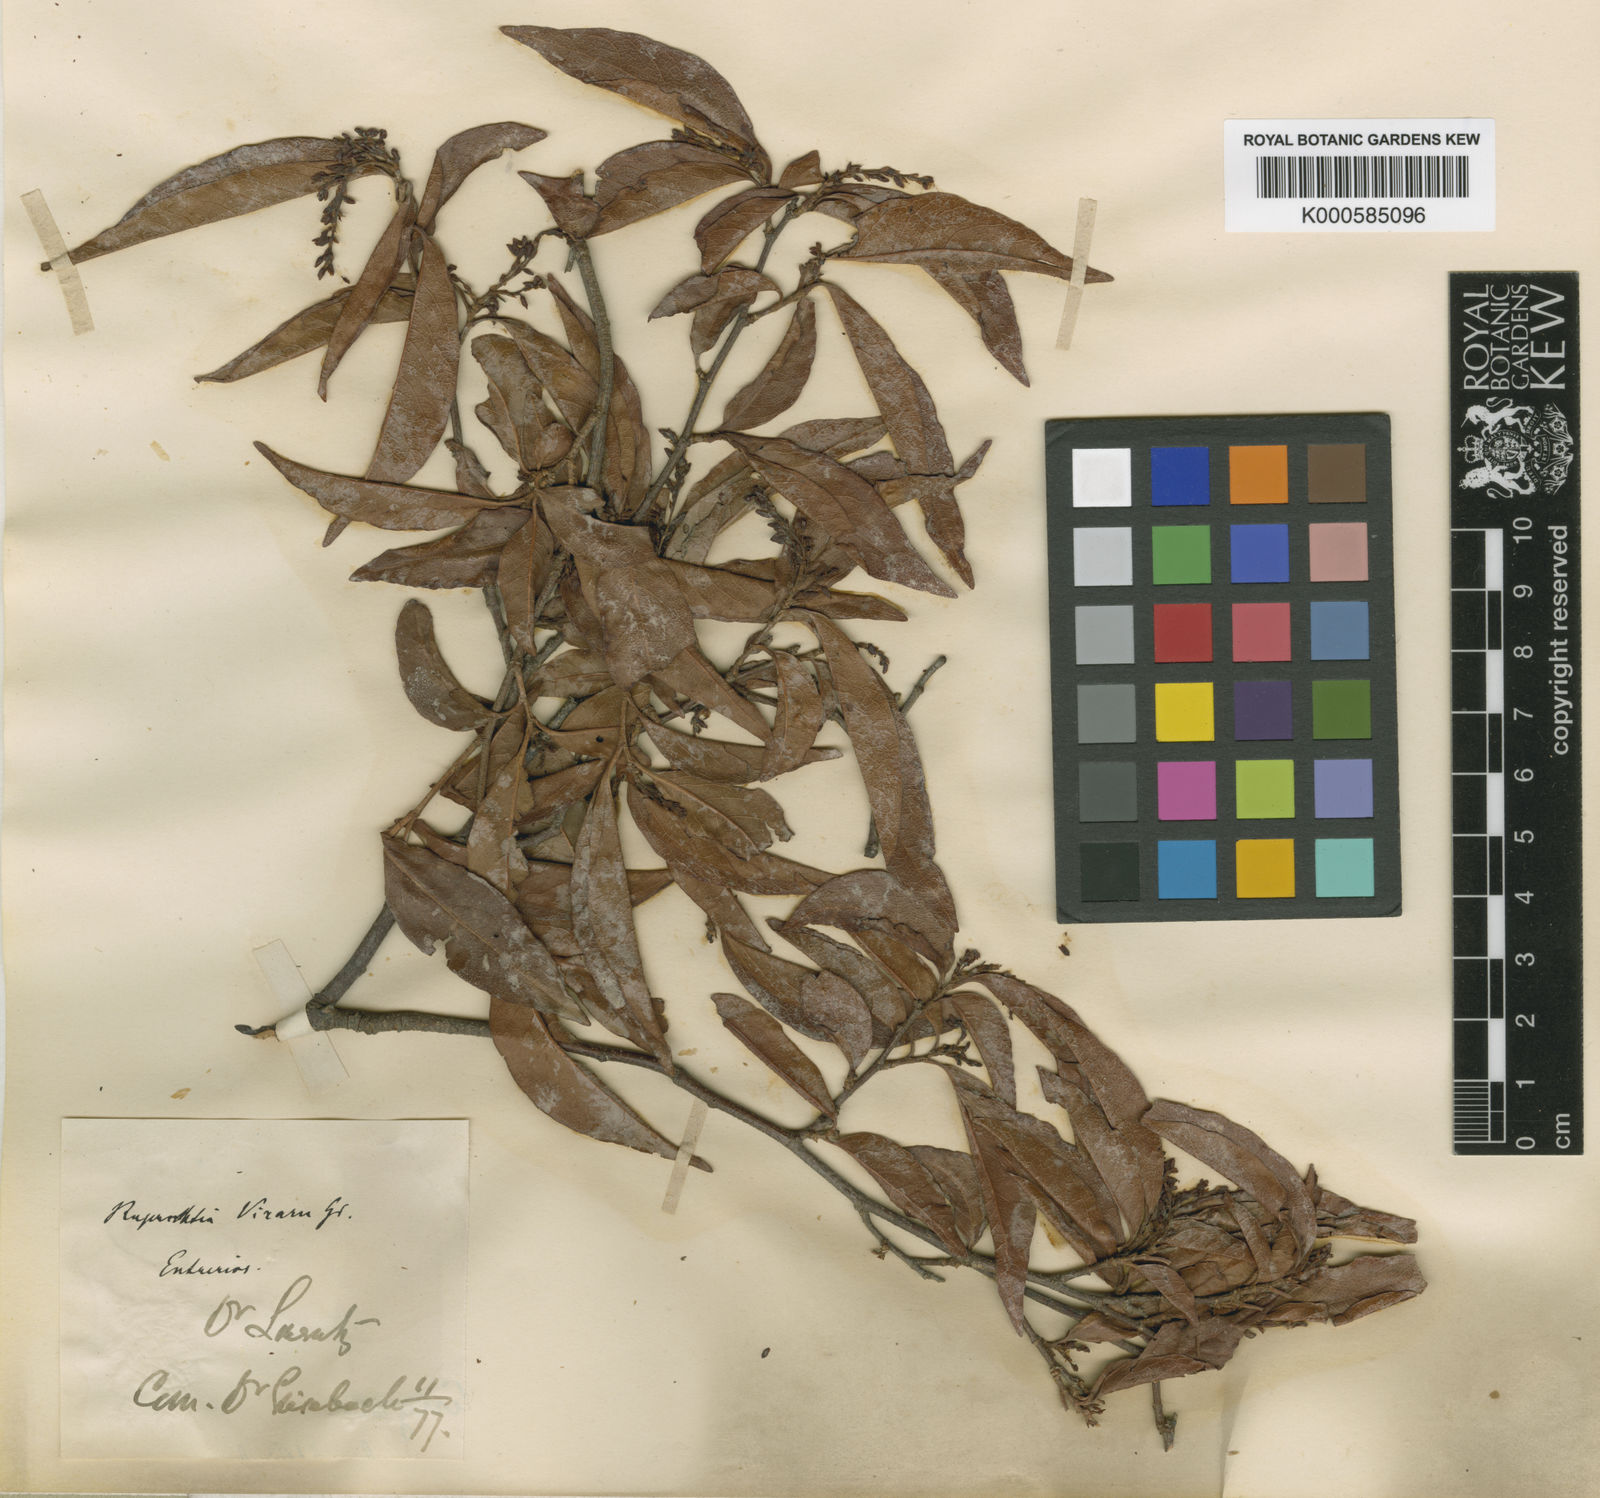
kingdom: Plantae
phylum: Tracheophyta
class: Magnoliopsida
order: Caryophyllales
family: Polygonaceae
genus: Ruprechtia
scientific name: Ruprechtia laxiflora
